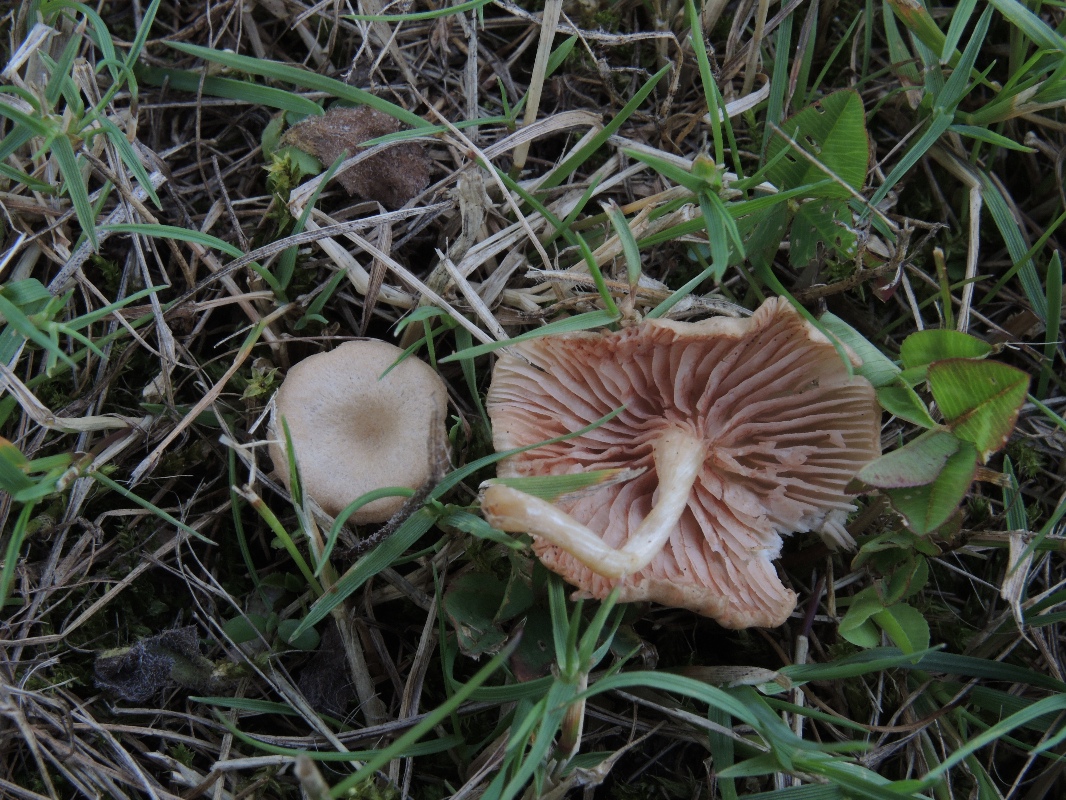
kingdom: Fungi
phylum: Basidiomycota
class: Agaricomycetes
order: Agaricales
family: Entolomataceae
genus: Entoloma
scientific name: Entoloma neglectum
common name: bleg rødblad
